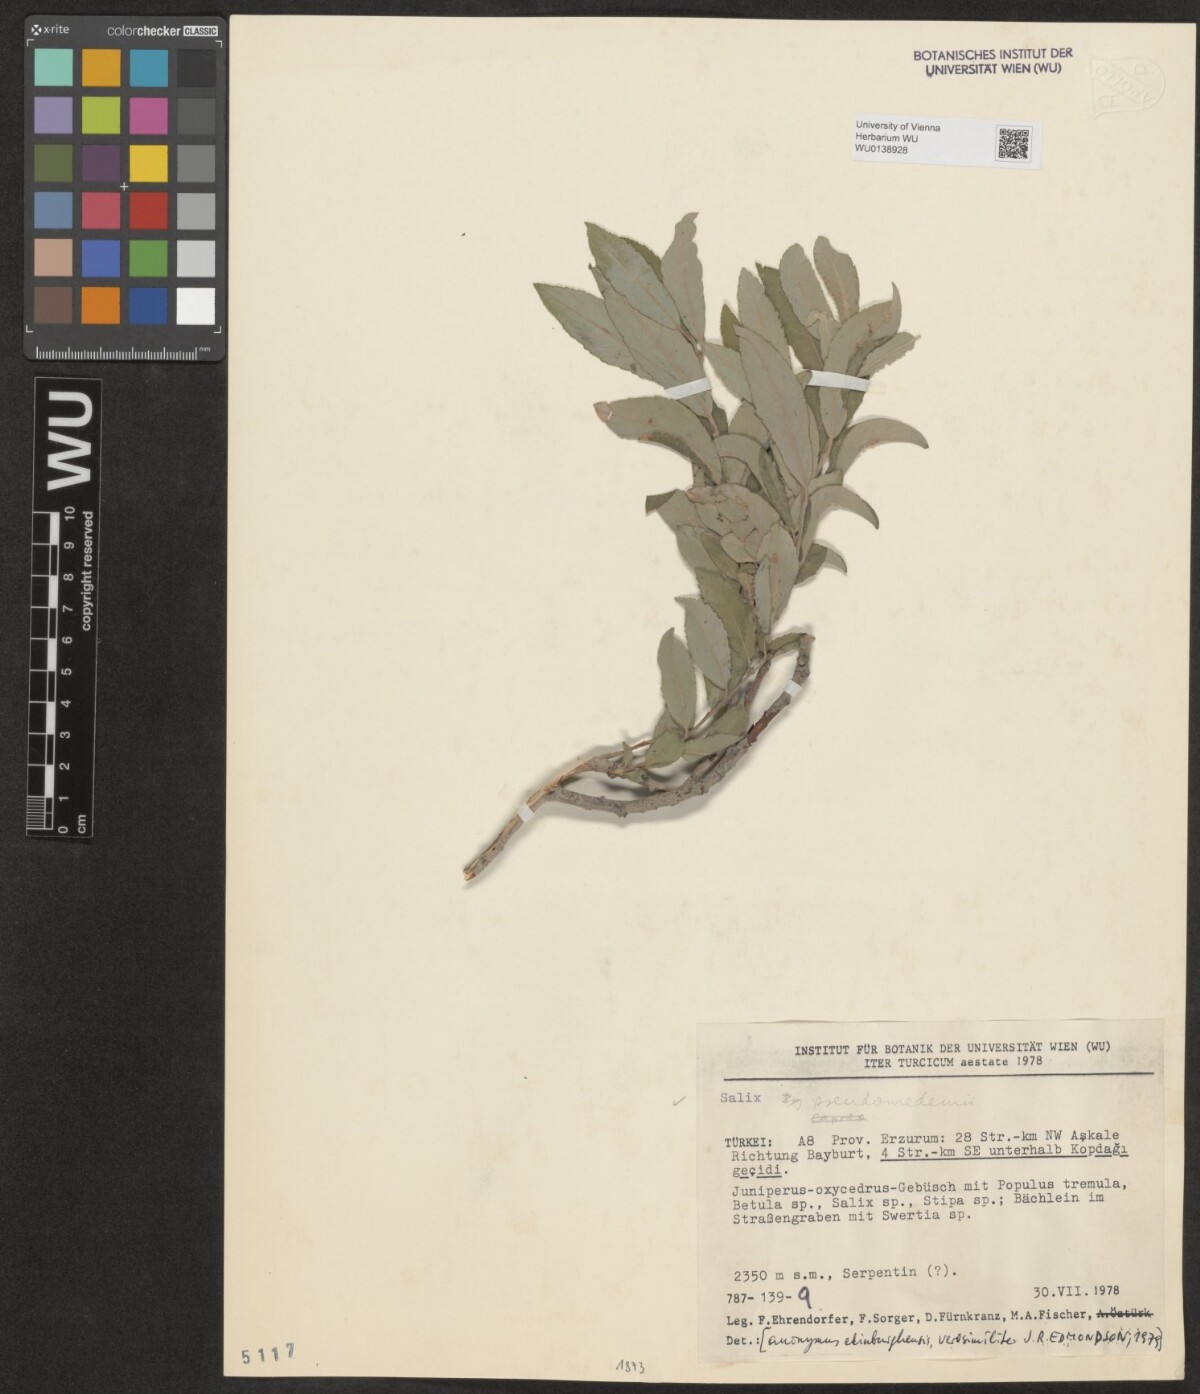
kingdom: Plantae
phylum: Tracheophyta
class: Magnoliopsida
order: Malpighiales
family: Salicaceae
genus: Salix
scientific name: Salix pseudomedemii
